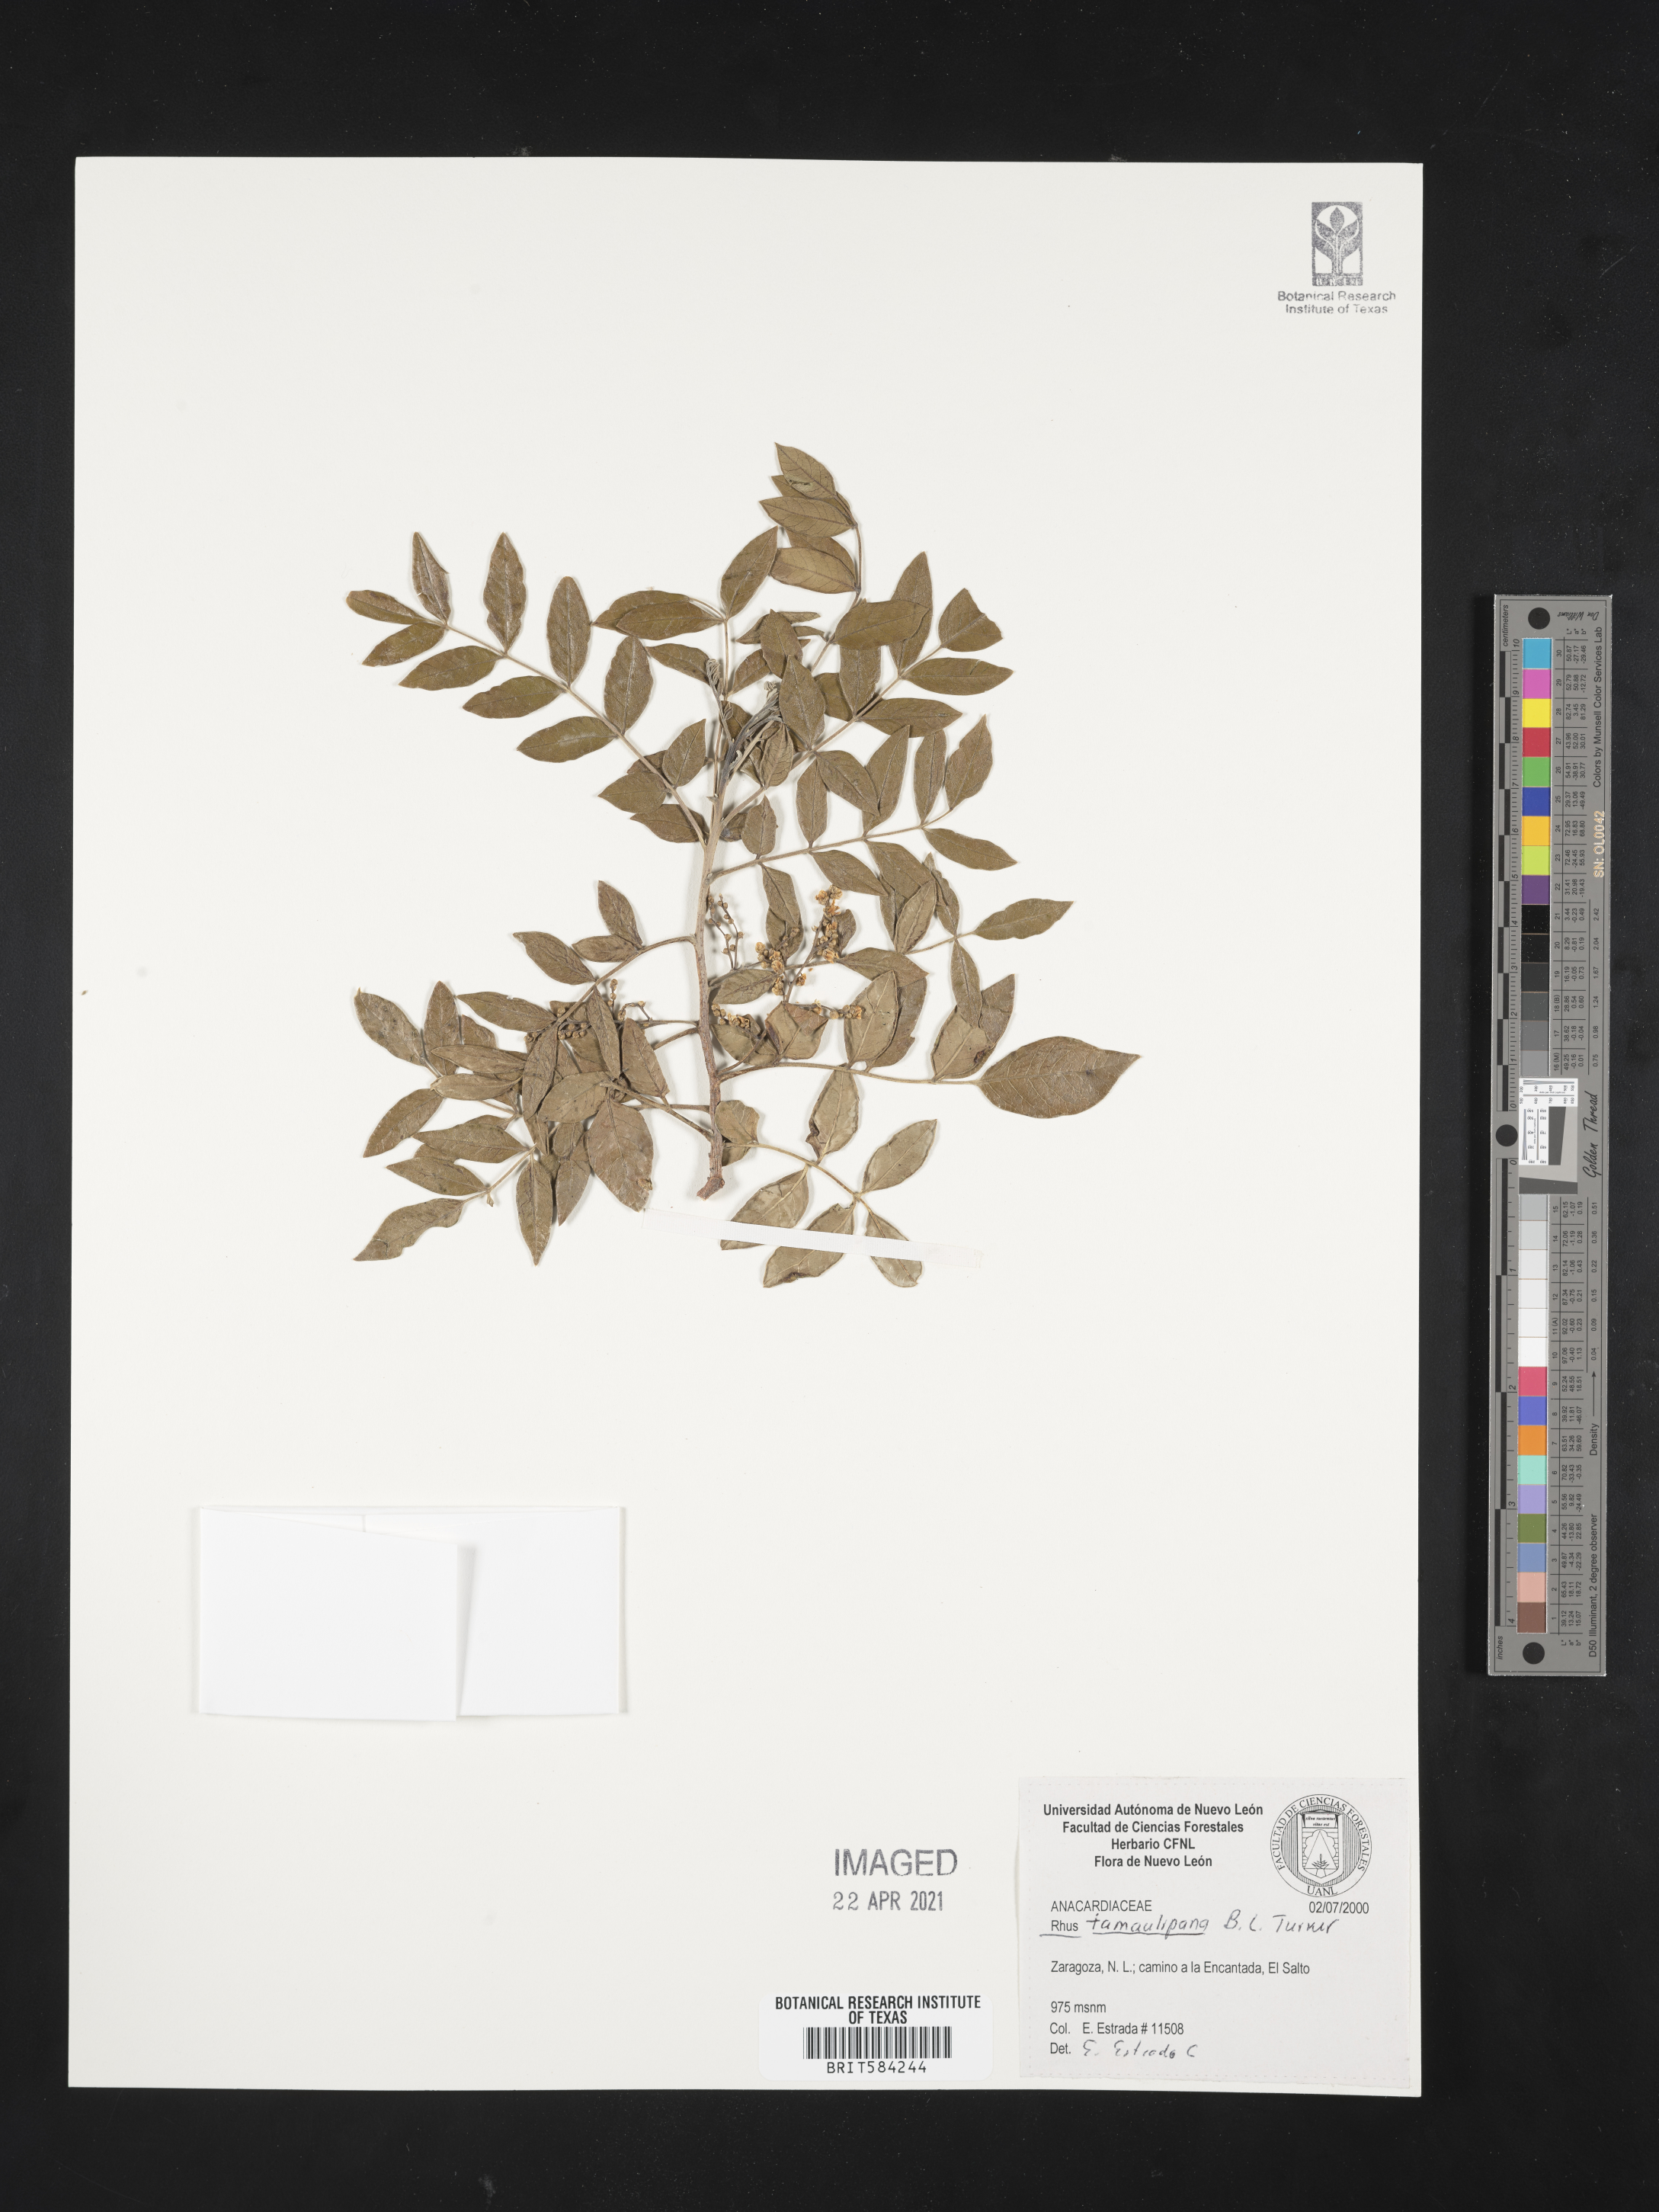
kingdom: Plantae
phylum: Tracheophyta
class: Magnoliopsida
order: Sapindales
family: Anacardiaceae
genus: Rhus
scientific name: Rhus tamaulipana
